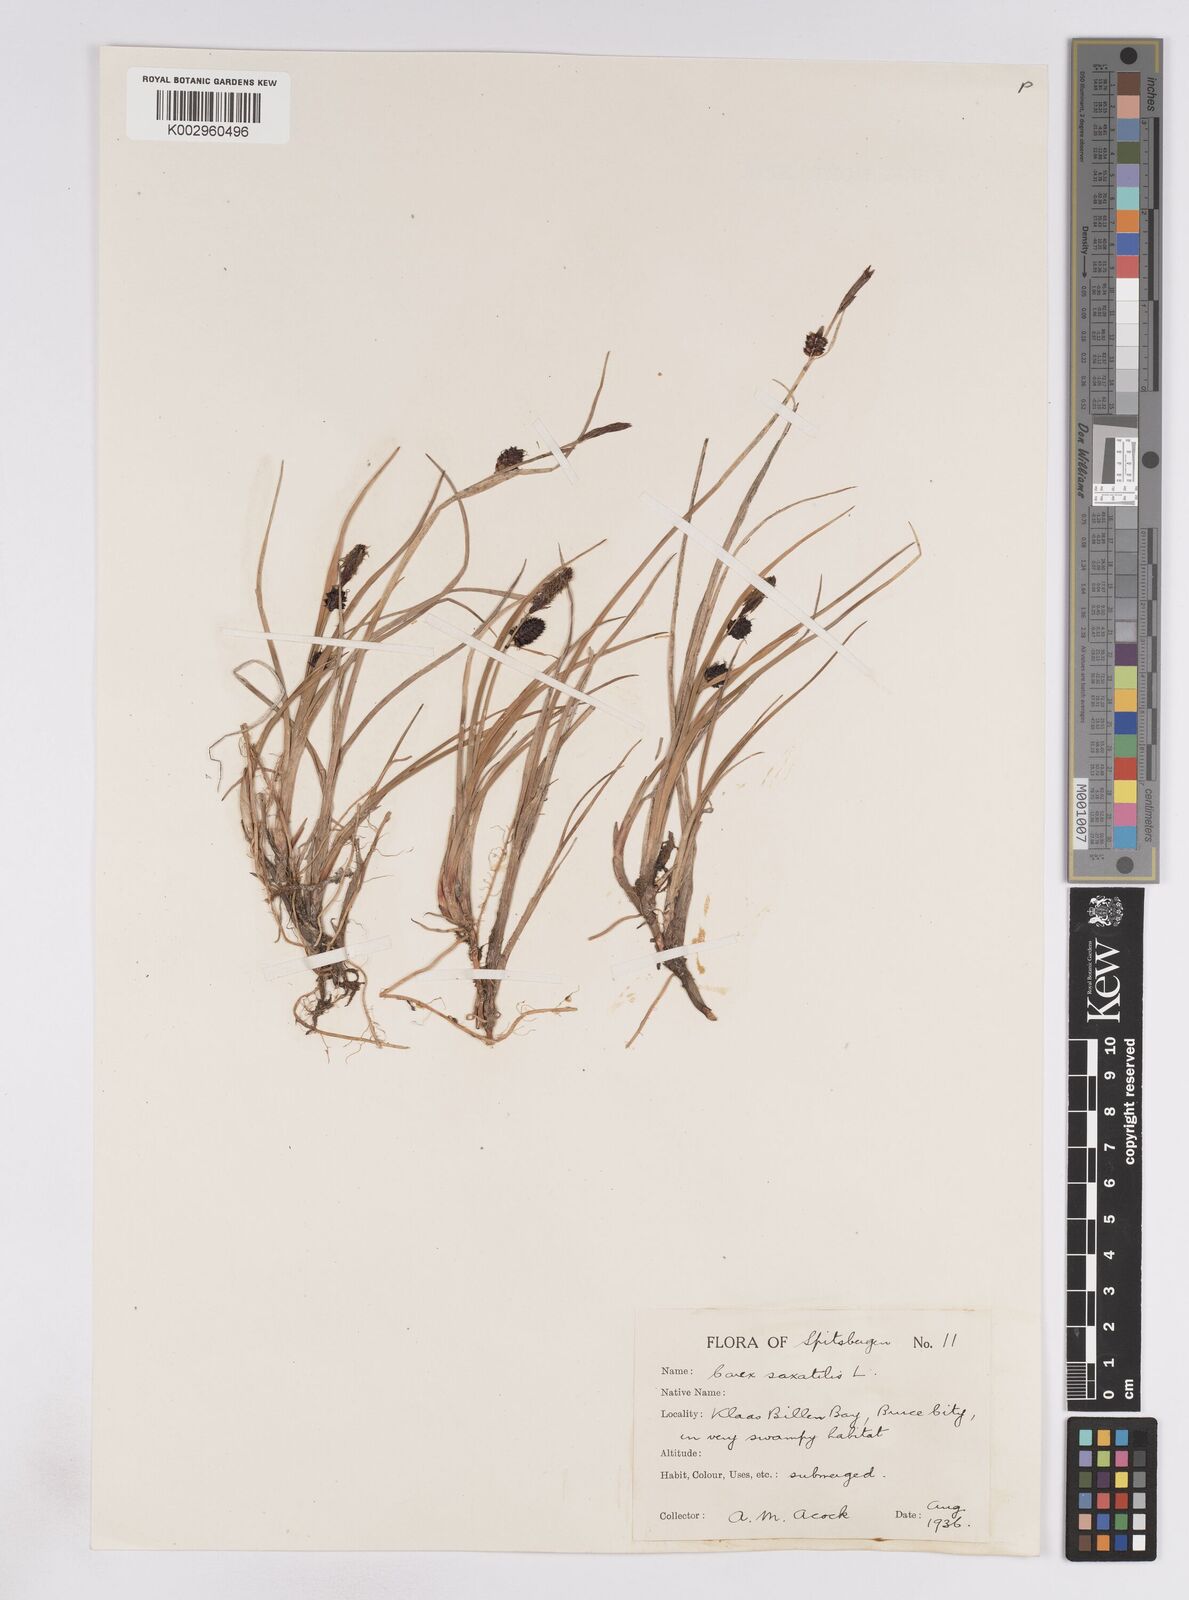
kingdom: Plantae
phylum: Tracheophyta
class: Liliopsida
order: Poales
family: Cyperaceae
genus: Carex
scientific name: Carex saxatilis
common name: Russet sedge
